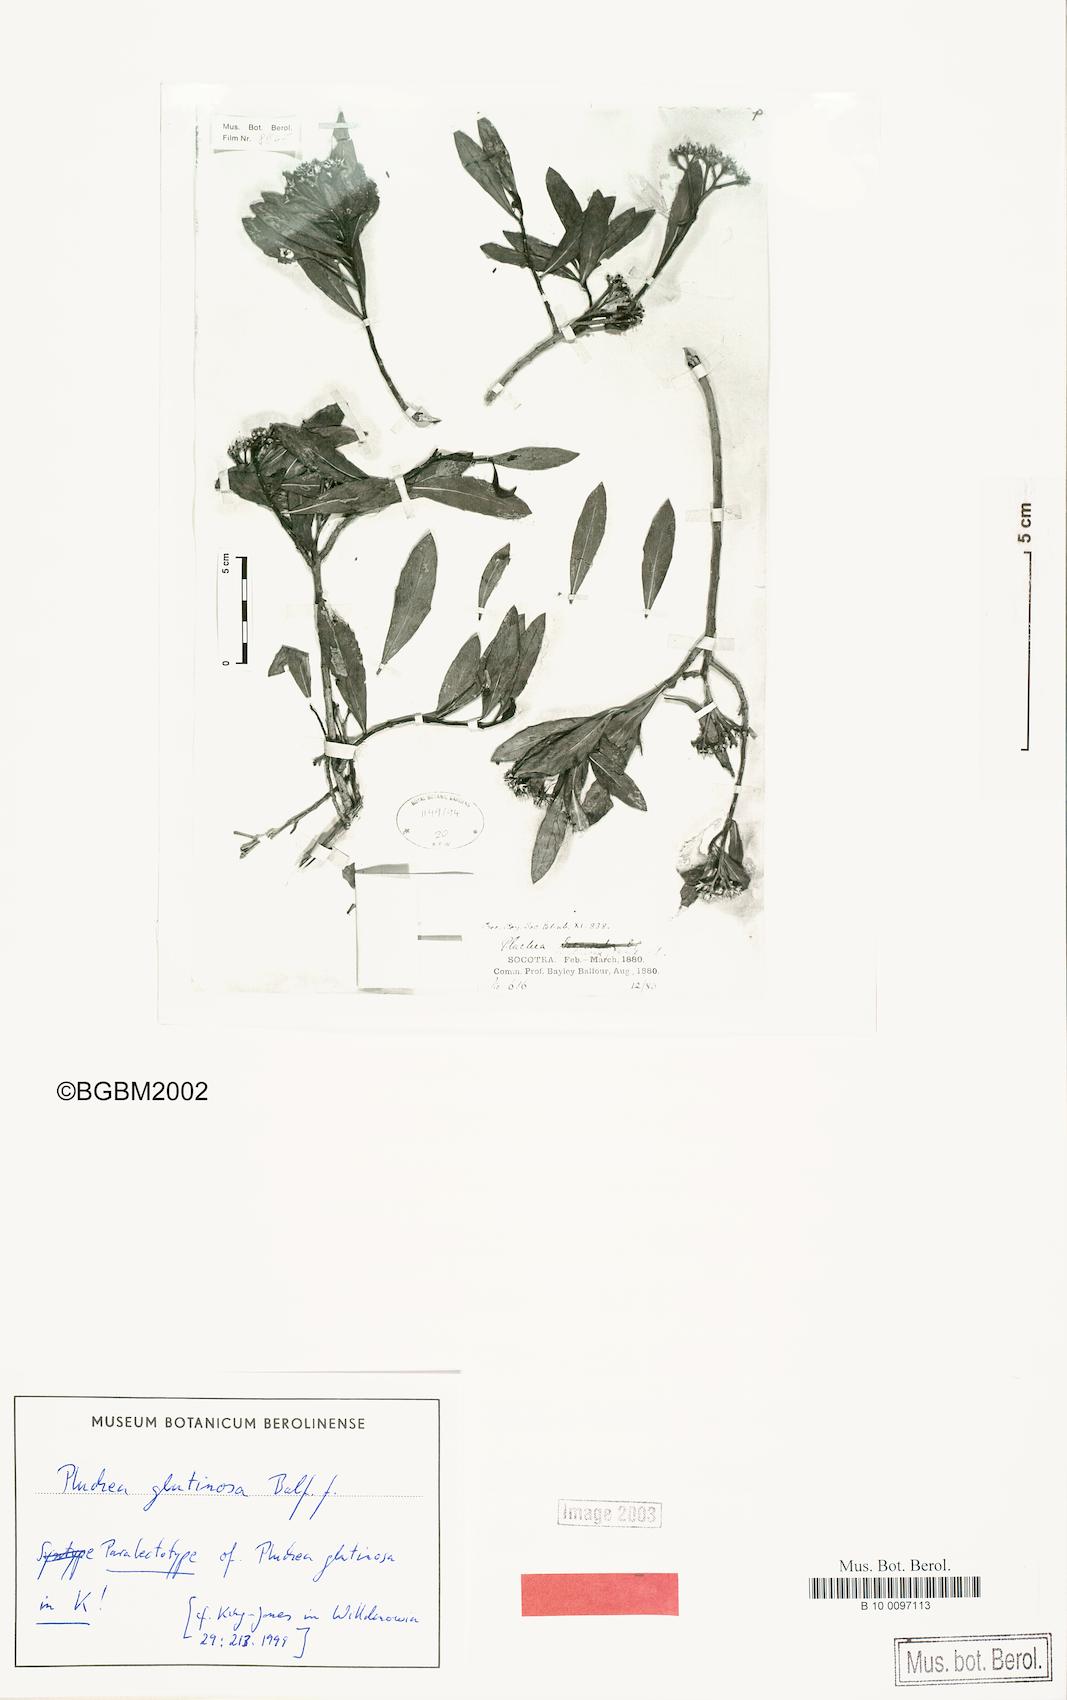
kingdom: Plantae
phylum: Tracheophyta
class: Magnoliopsida
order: Asterales
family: Asteraceae
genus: Pluchea
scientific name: Pluchea glutinosa
